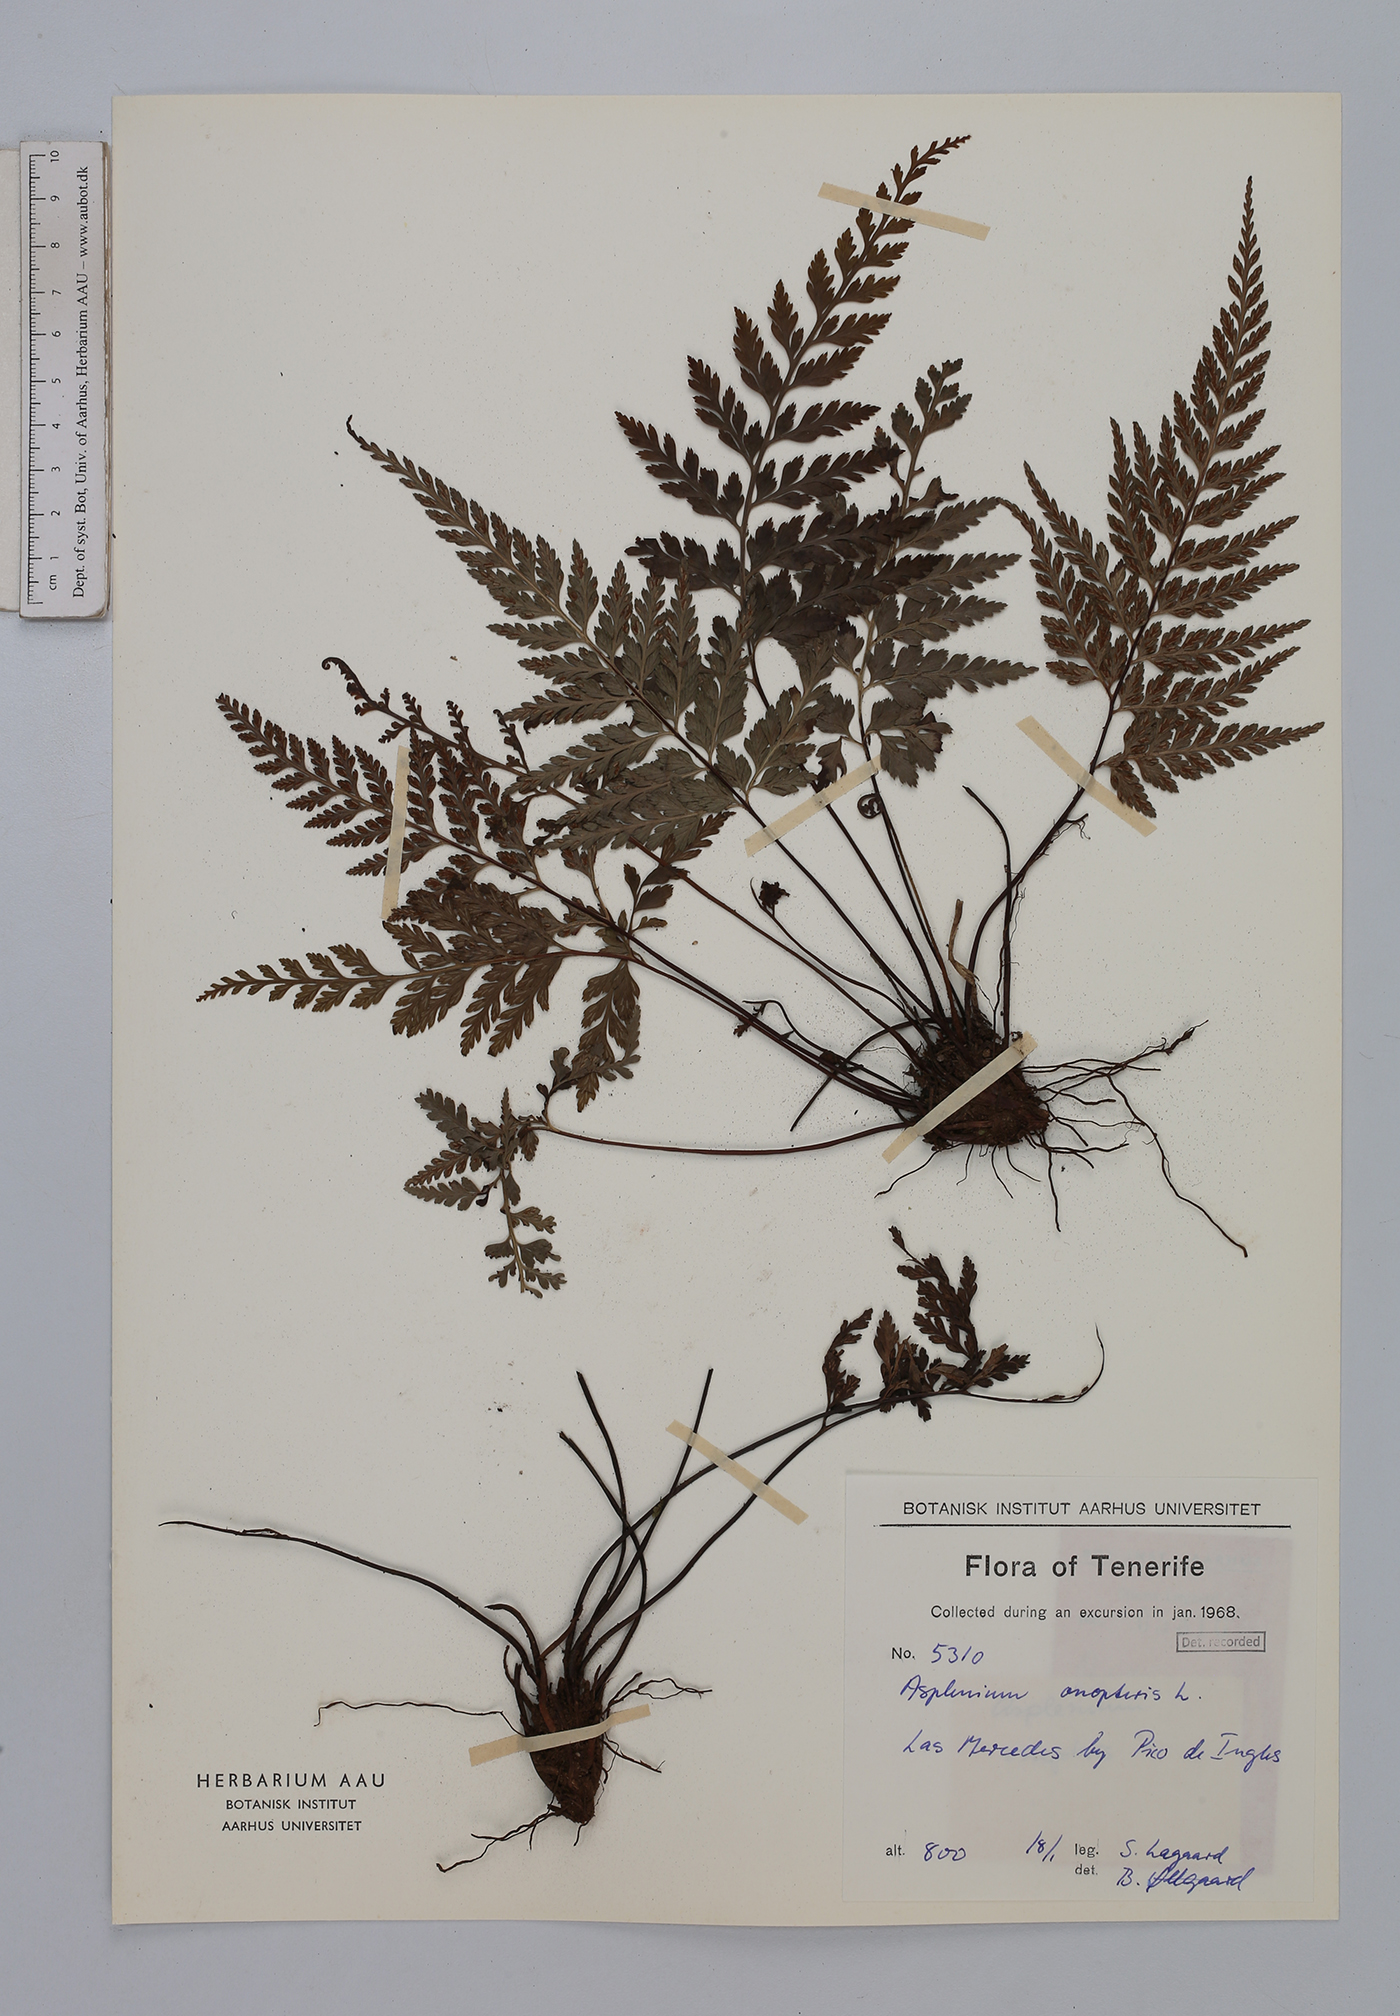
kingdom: Plantae
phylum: Tracheophyta
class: Polypodiopsida
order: Polypodiales
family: Aspleniaceae
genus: Asplenium
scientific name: Asplenium onopteris
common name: Irish spleenwort
